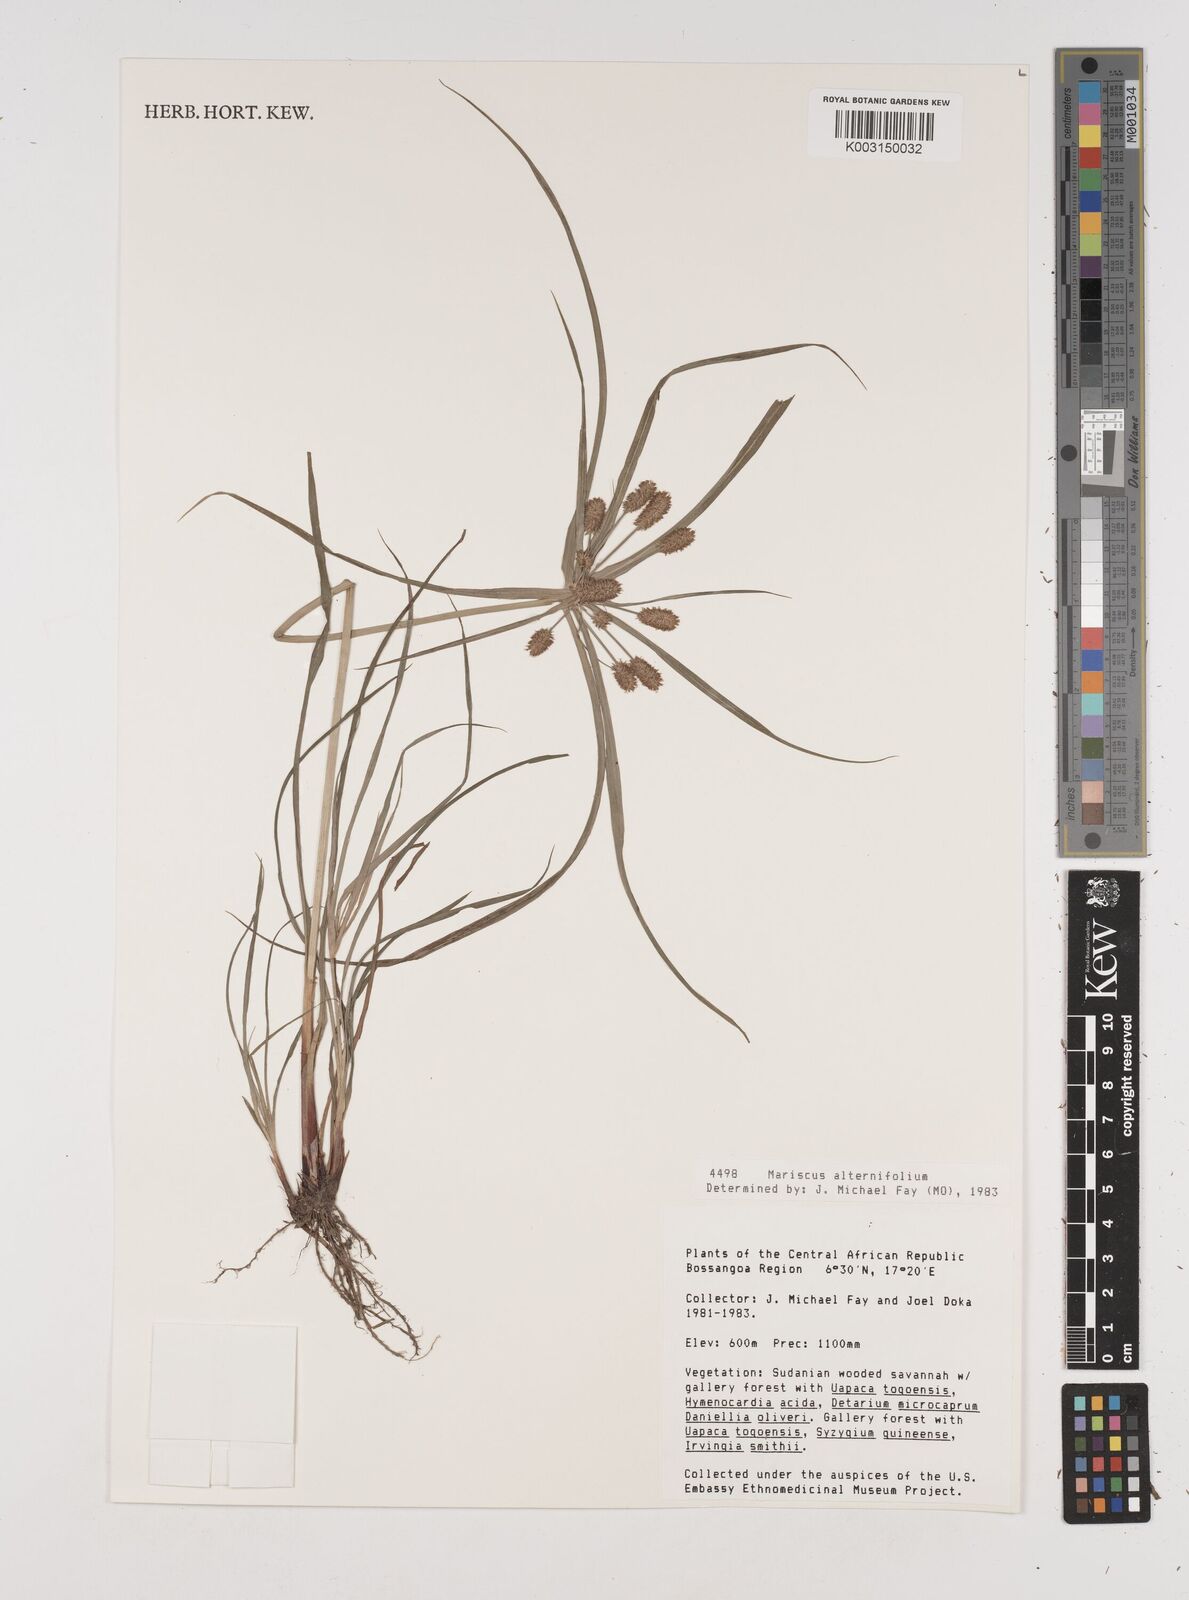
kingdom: Plantae
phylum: Tracheophyta
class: Liliopsida
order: Poales
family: Cyperaceae
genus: Cyperus
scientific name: Cyperus cyperoides
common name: Pacific island flat sedge
